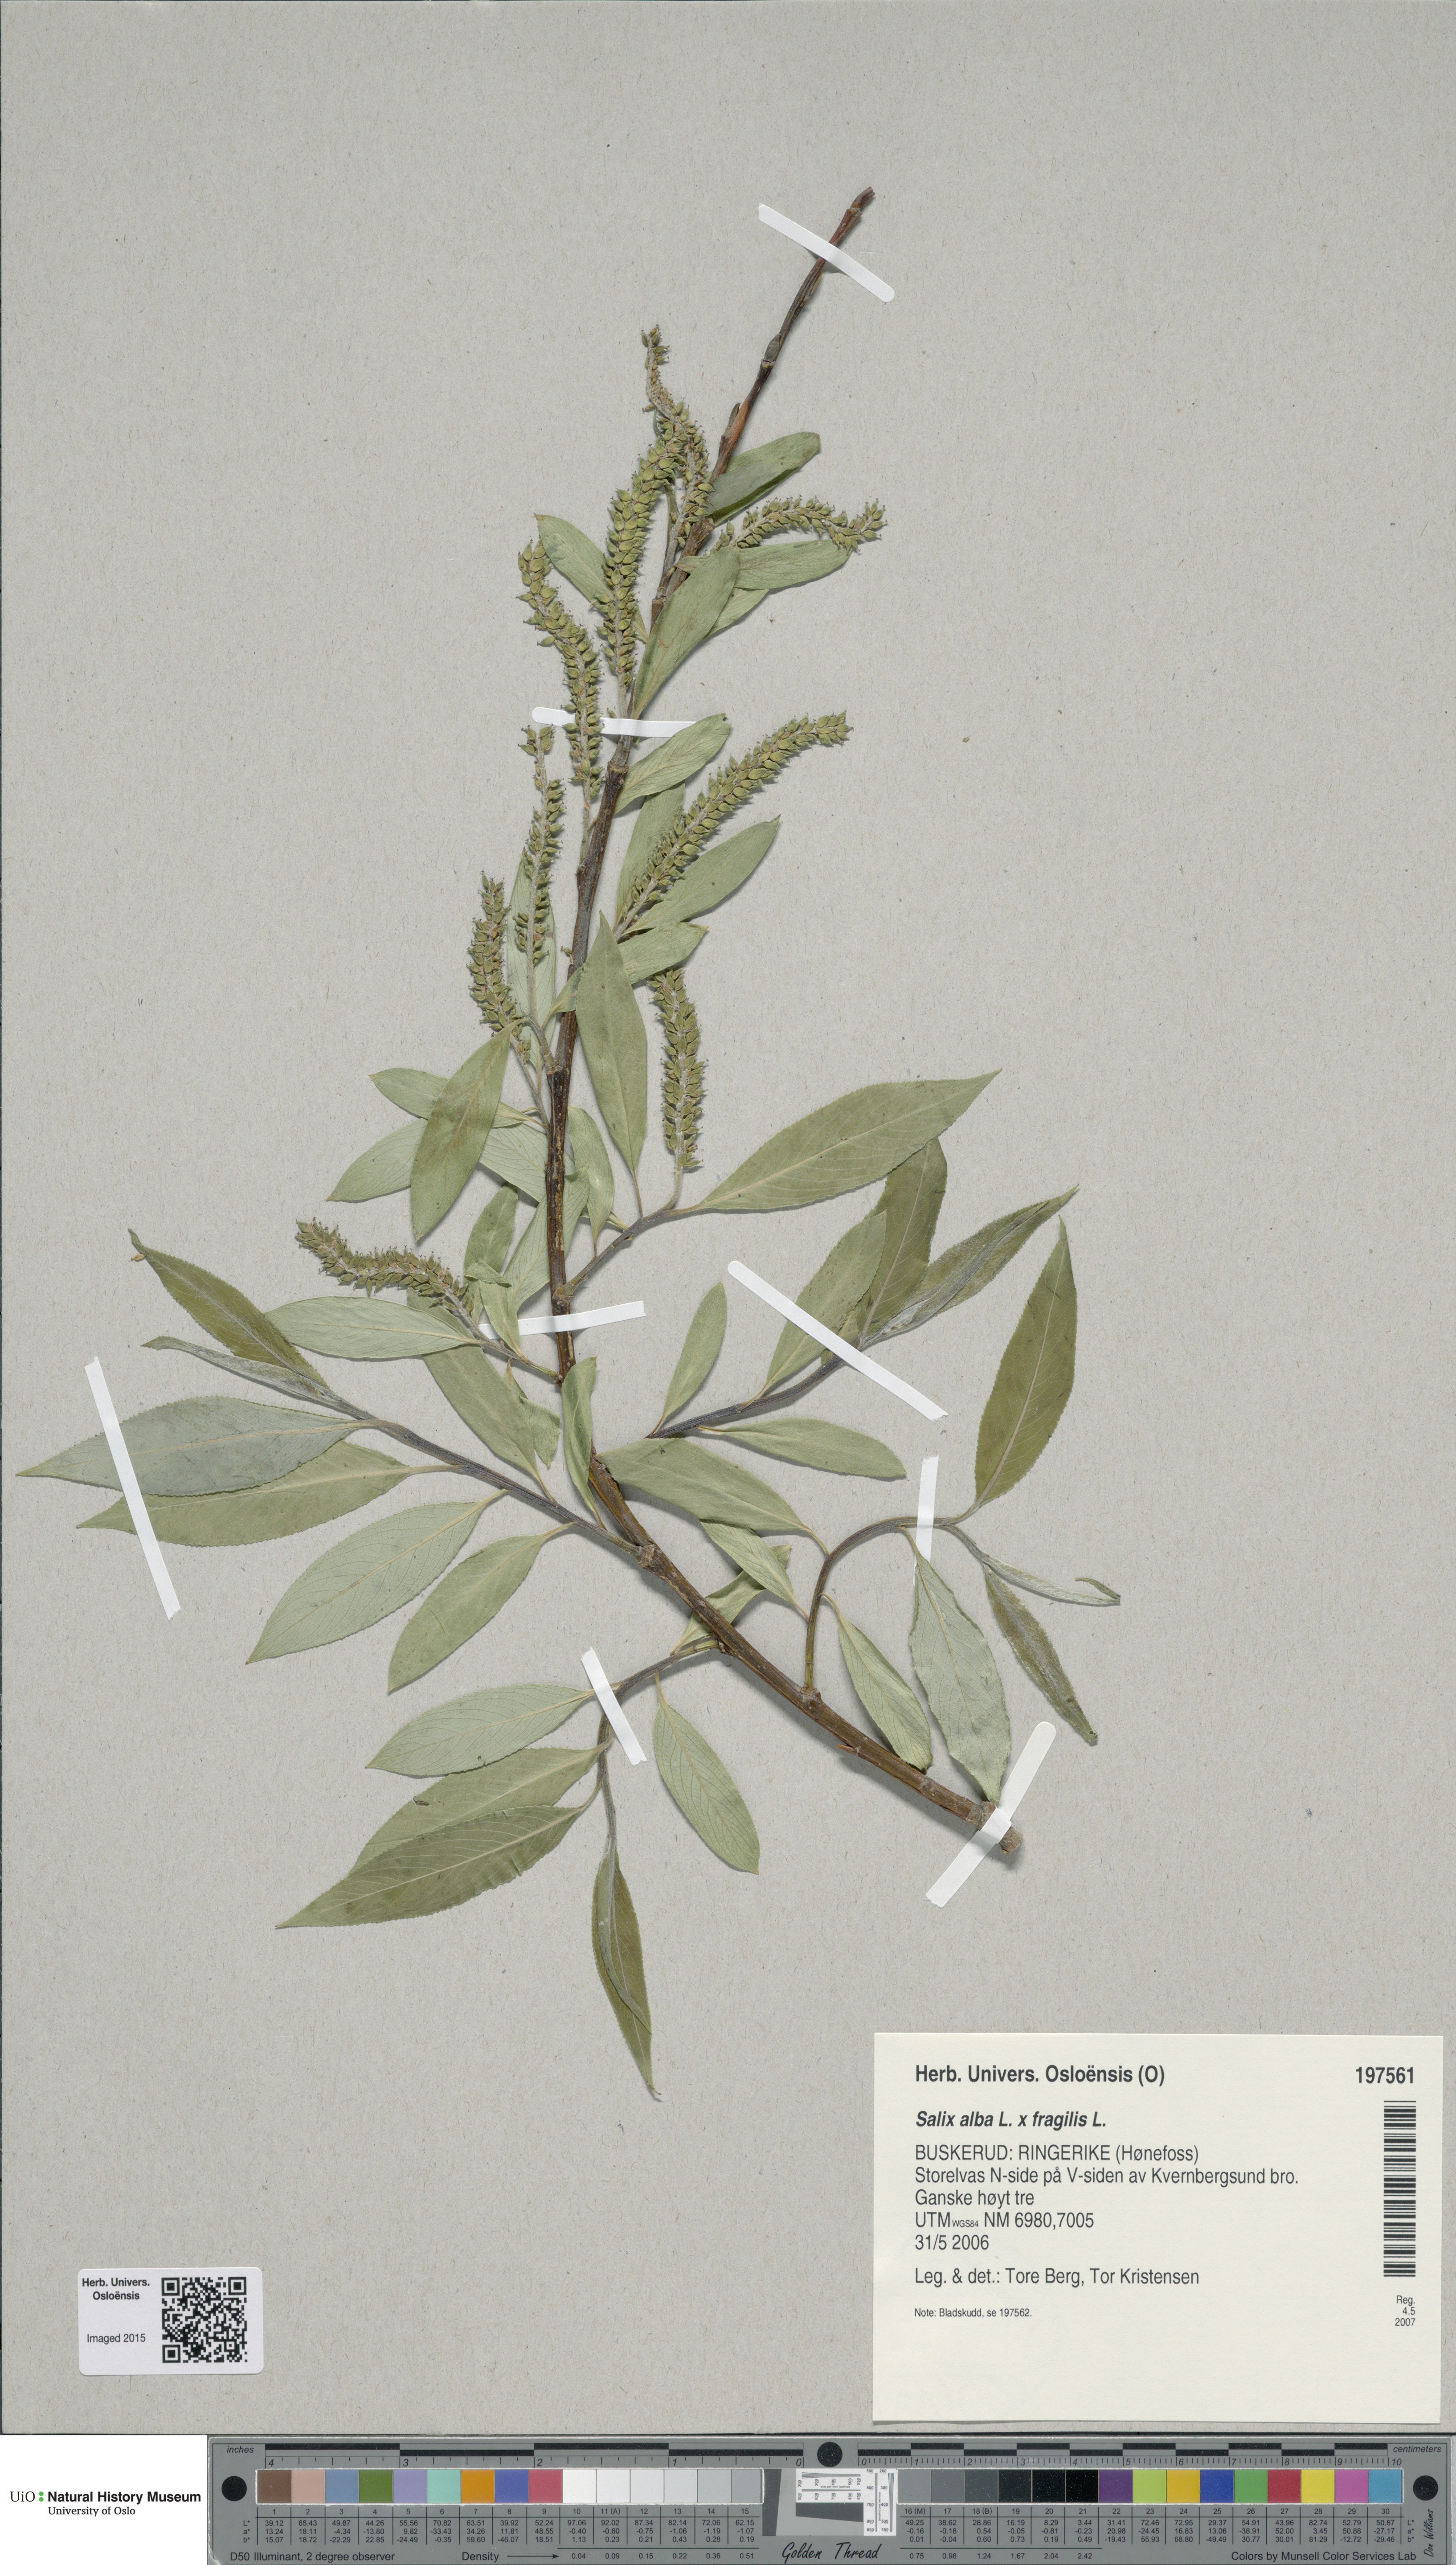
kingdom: Plantae
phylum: Tracheophyta
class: Magnoliopsida
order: Malpighiales
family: Salicaceae
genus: Salix
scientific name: Salix
